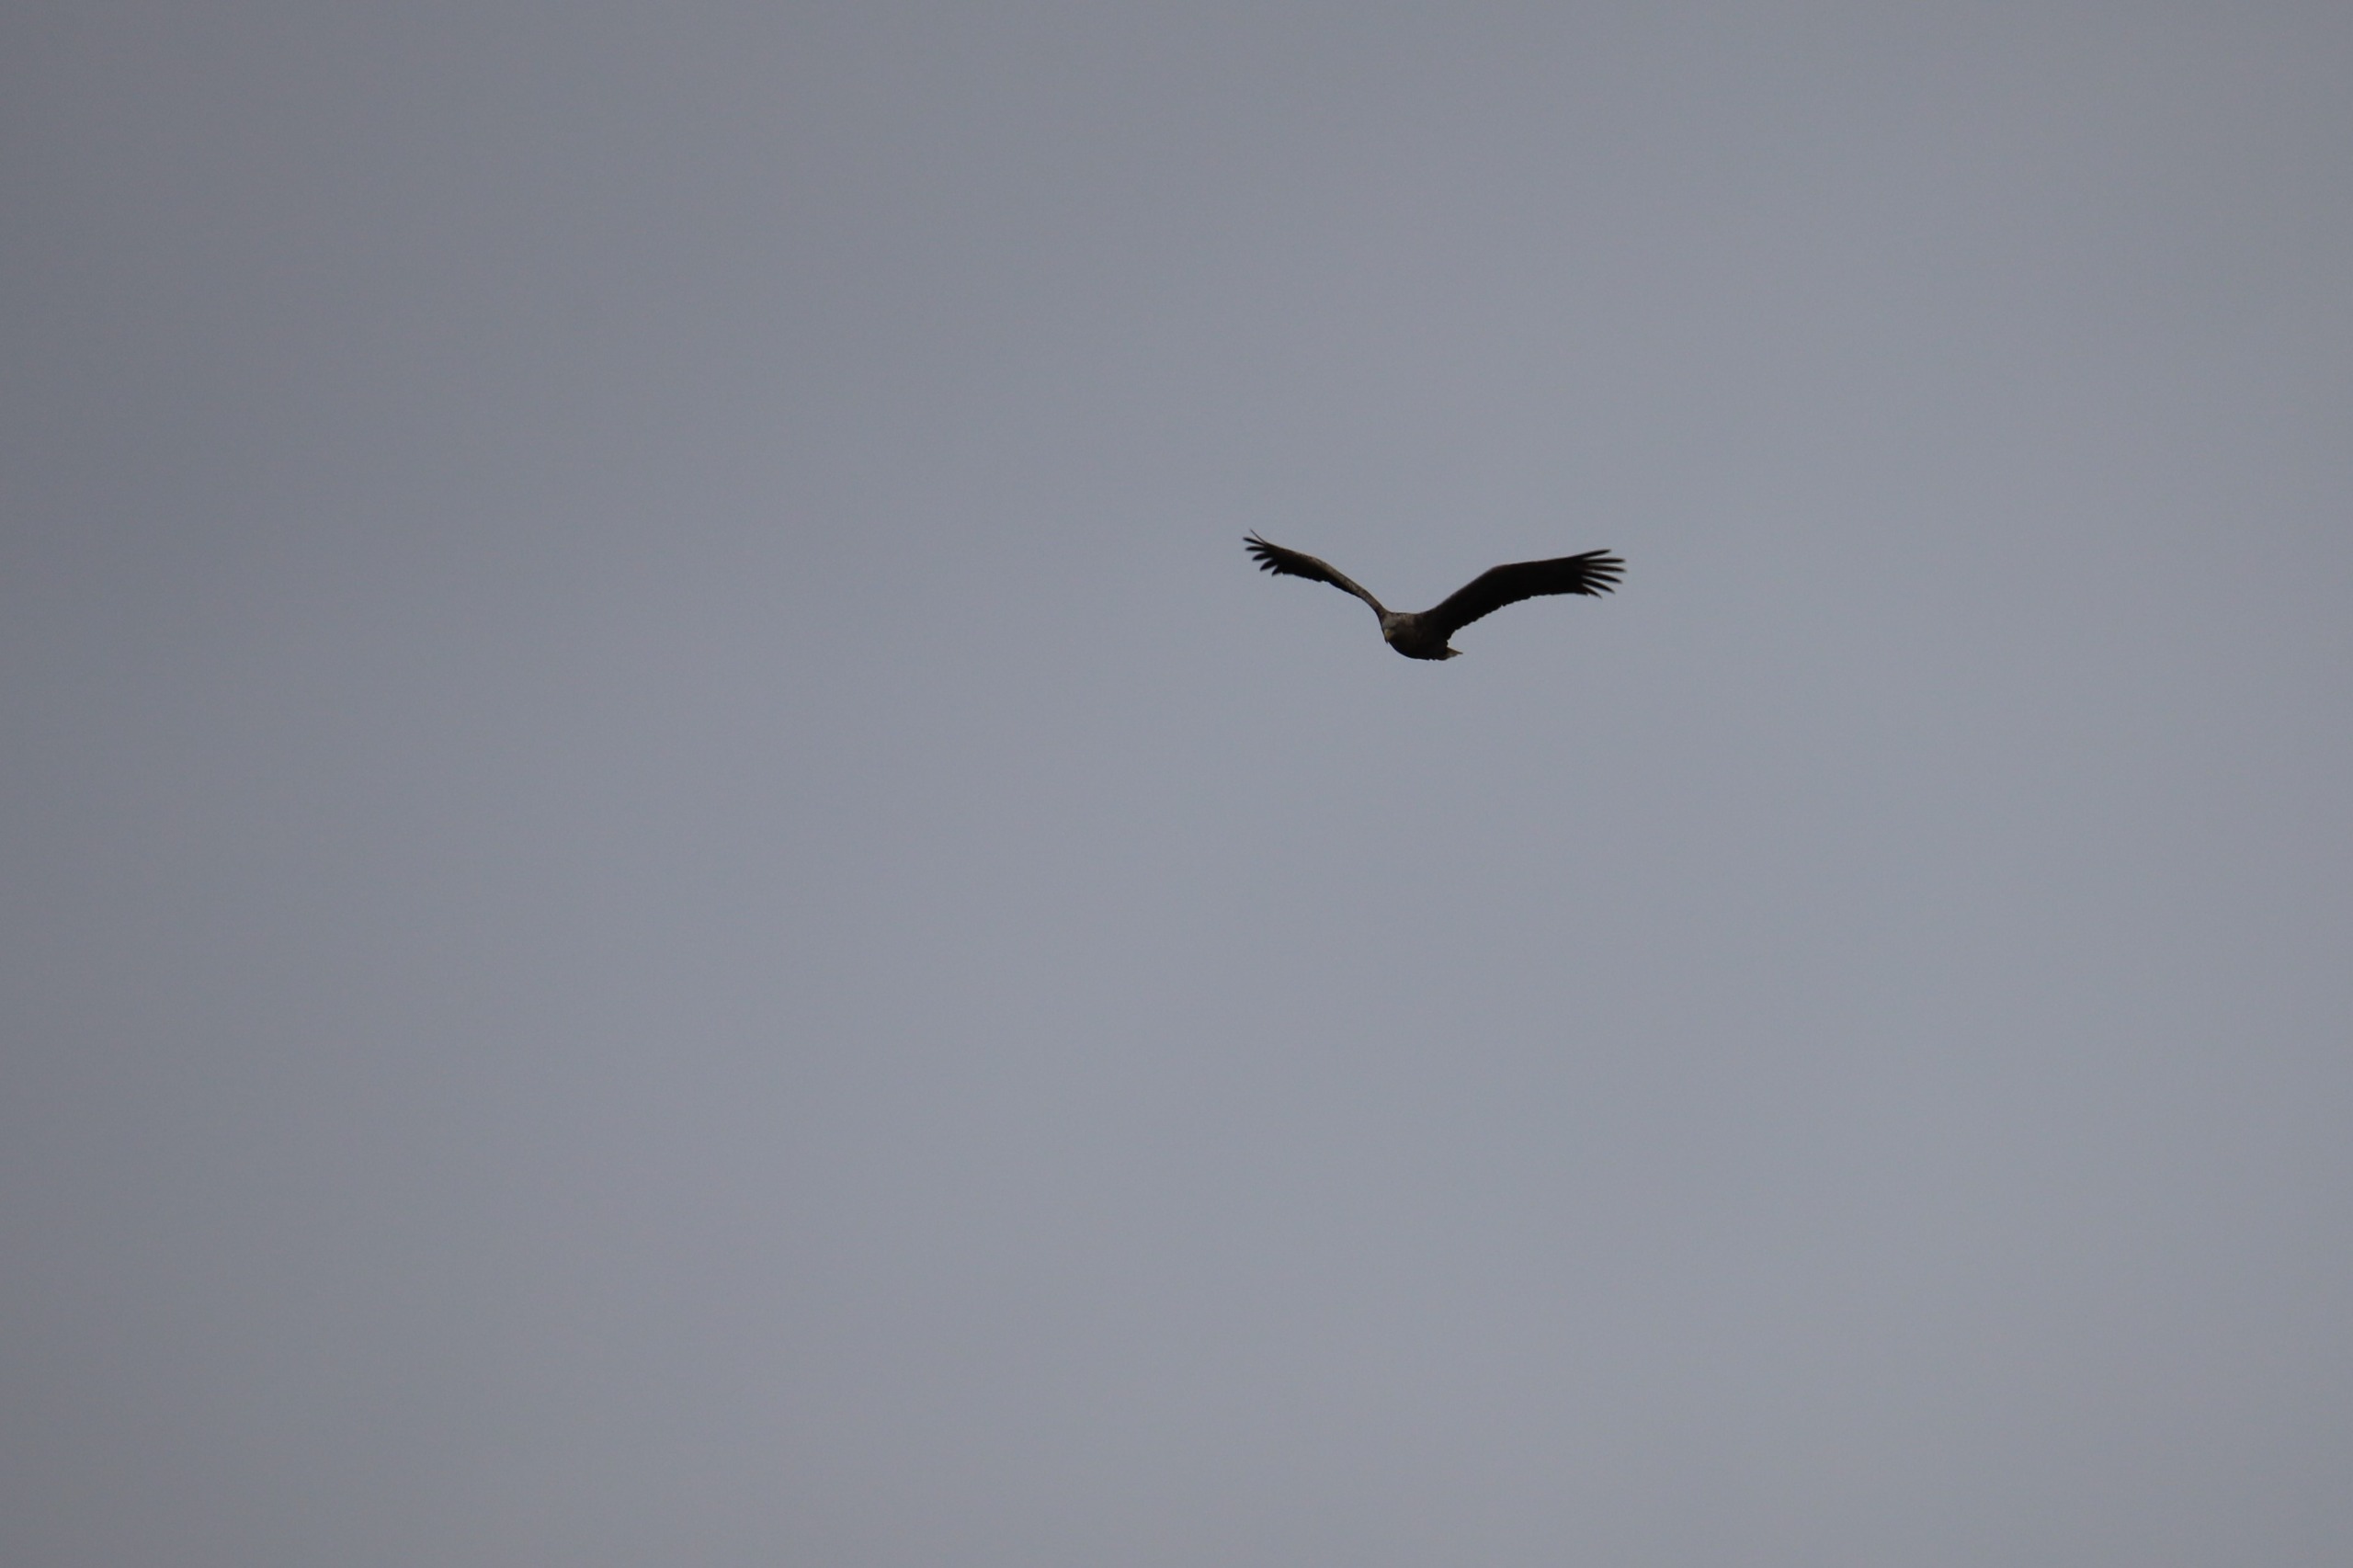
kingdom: Animalia
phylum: Chordata
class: Aves
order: Accipitriformes
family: Accipitridae
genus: Haliaeetus
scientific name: Haliaeetus albicilla
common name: Havørn
